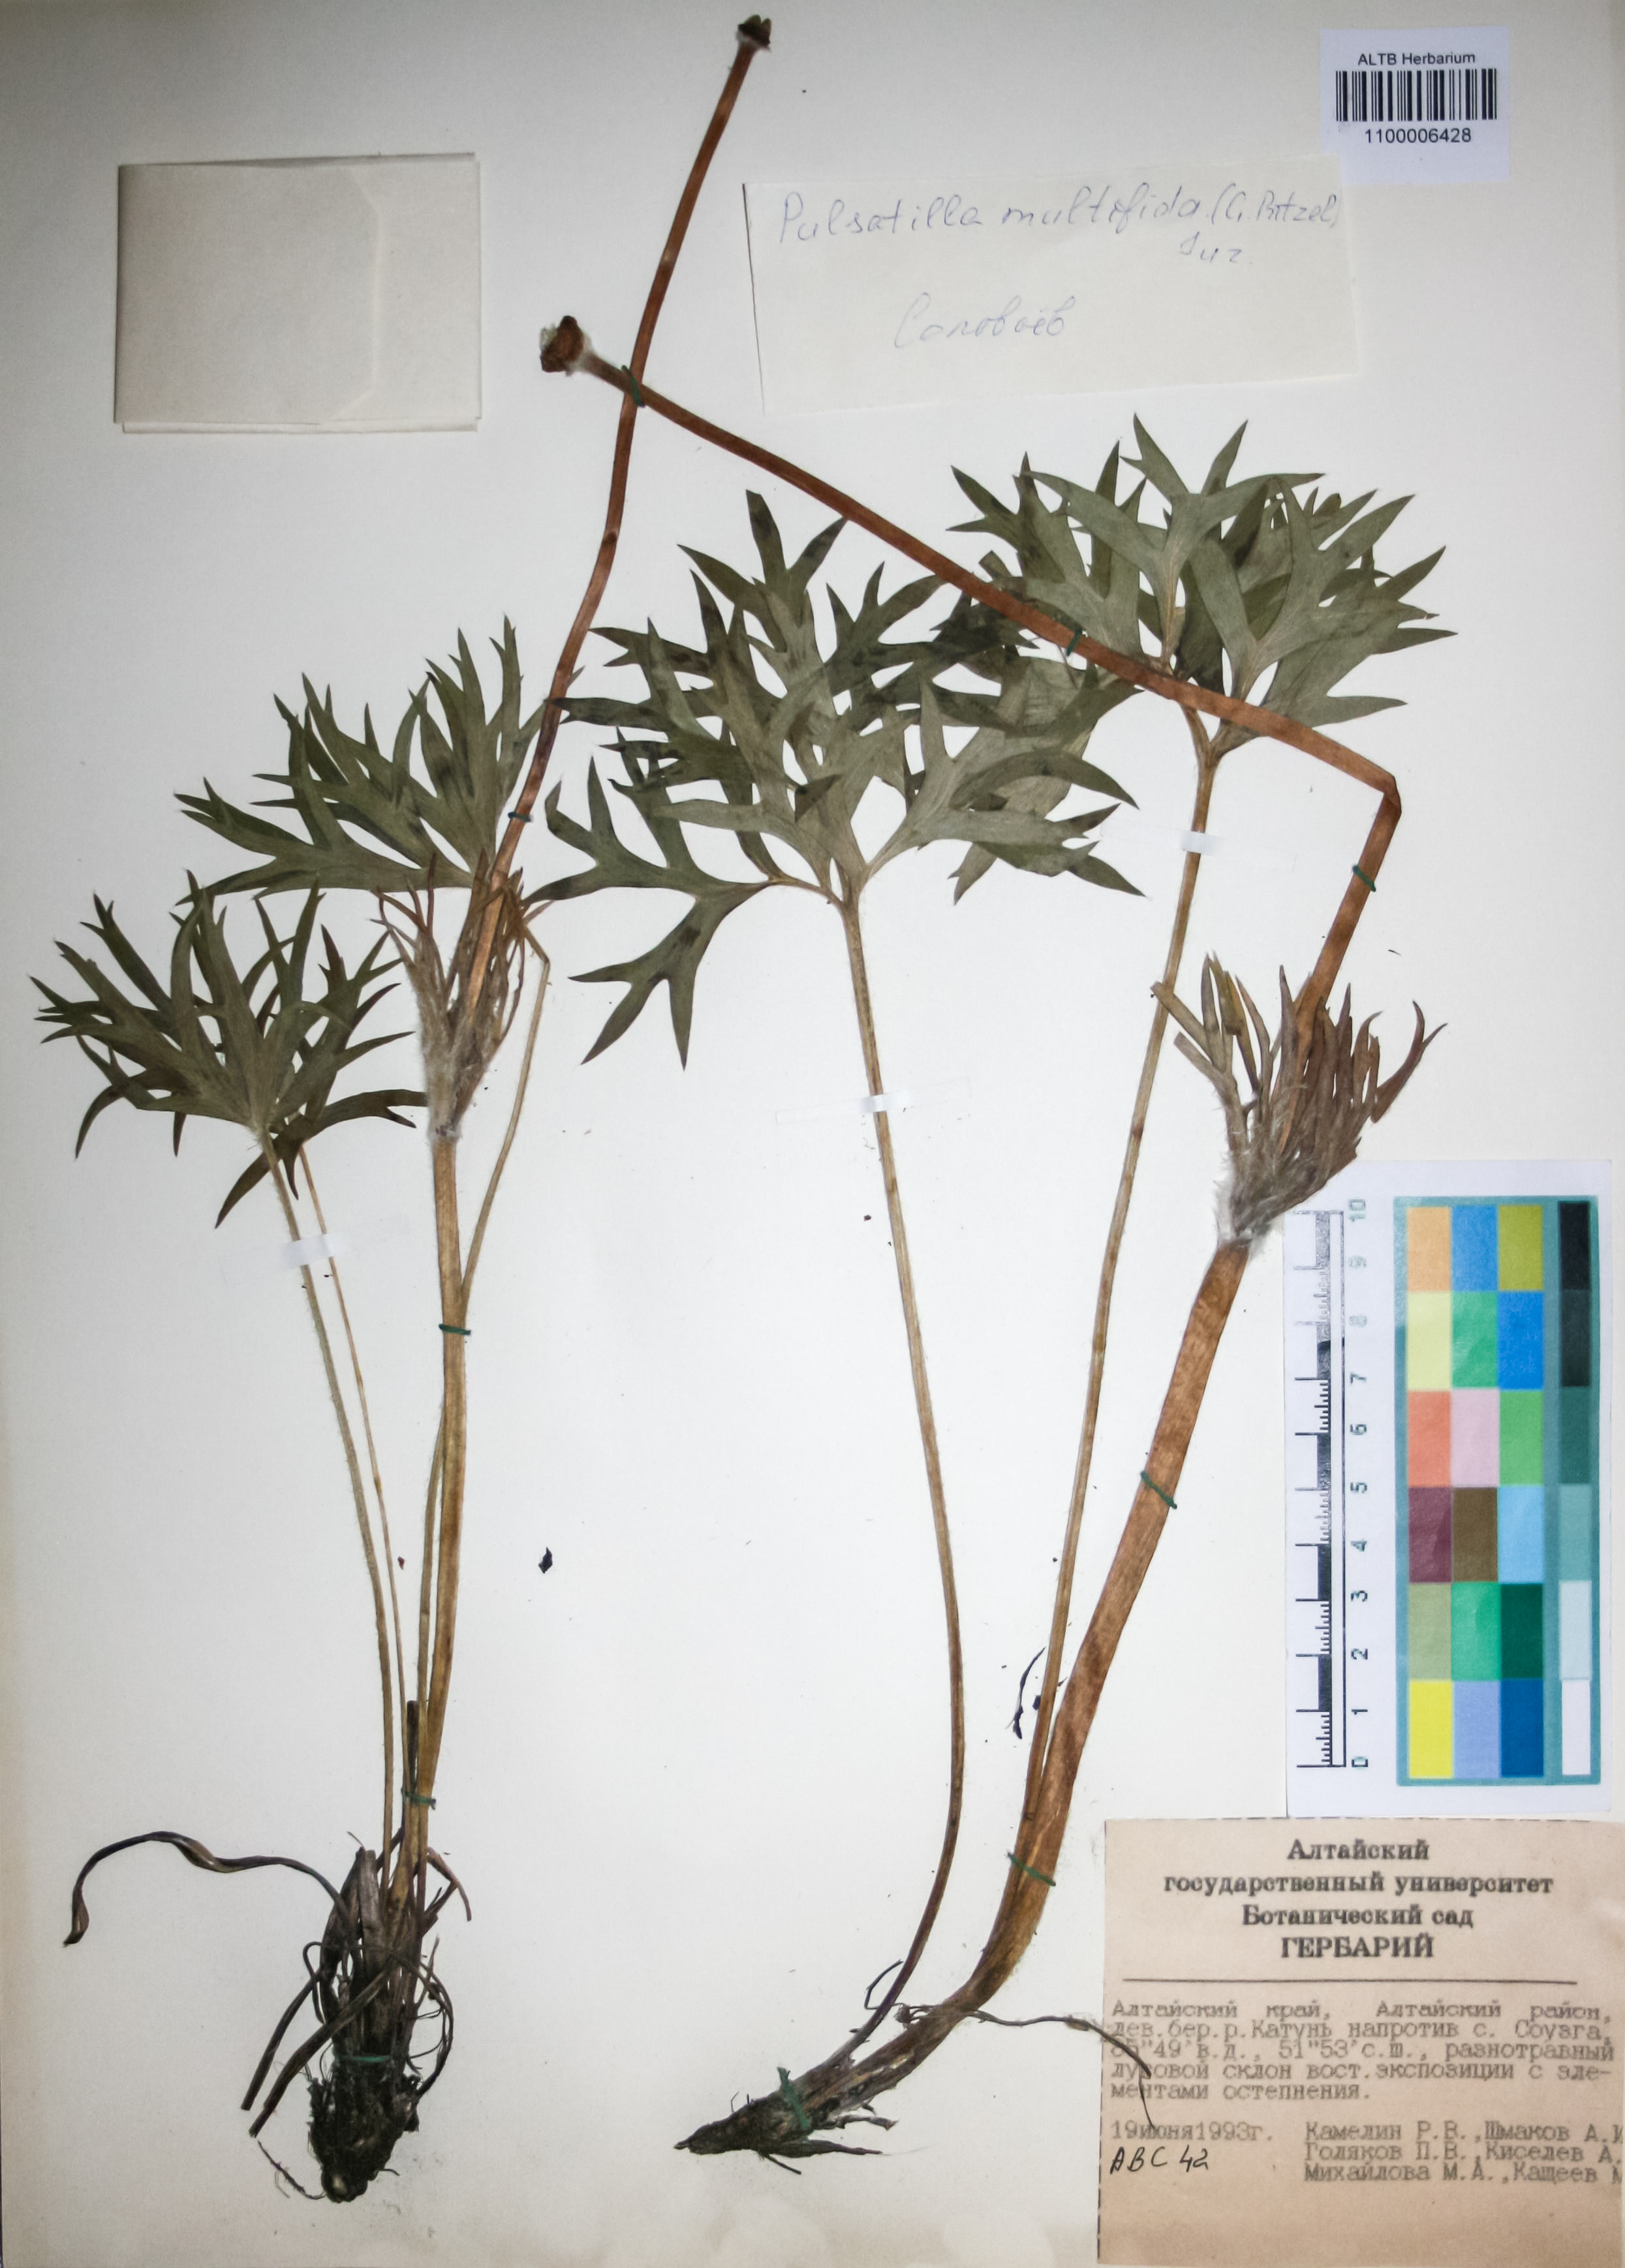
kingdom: Plantae
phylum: Tracheophyta
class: Magnoliopsida
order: Ranunculales
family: Ranunculaceae
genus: Pulsatilla
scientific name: Pulsatilla patens
